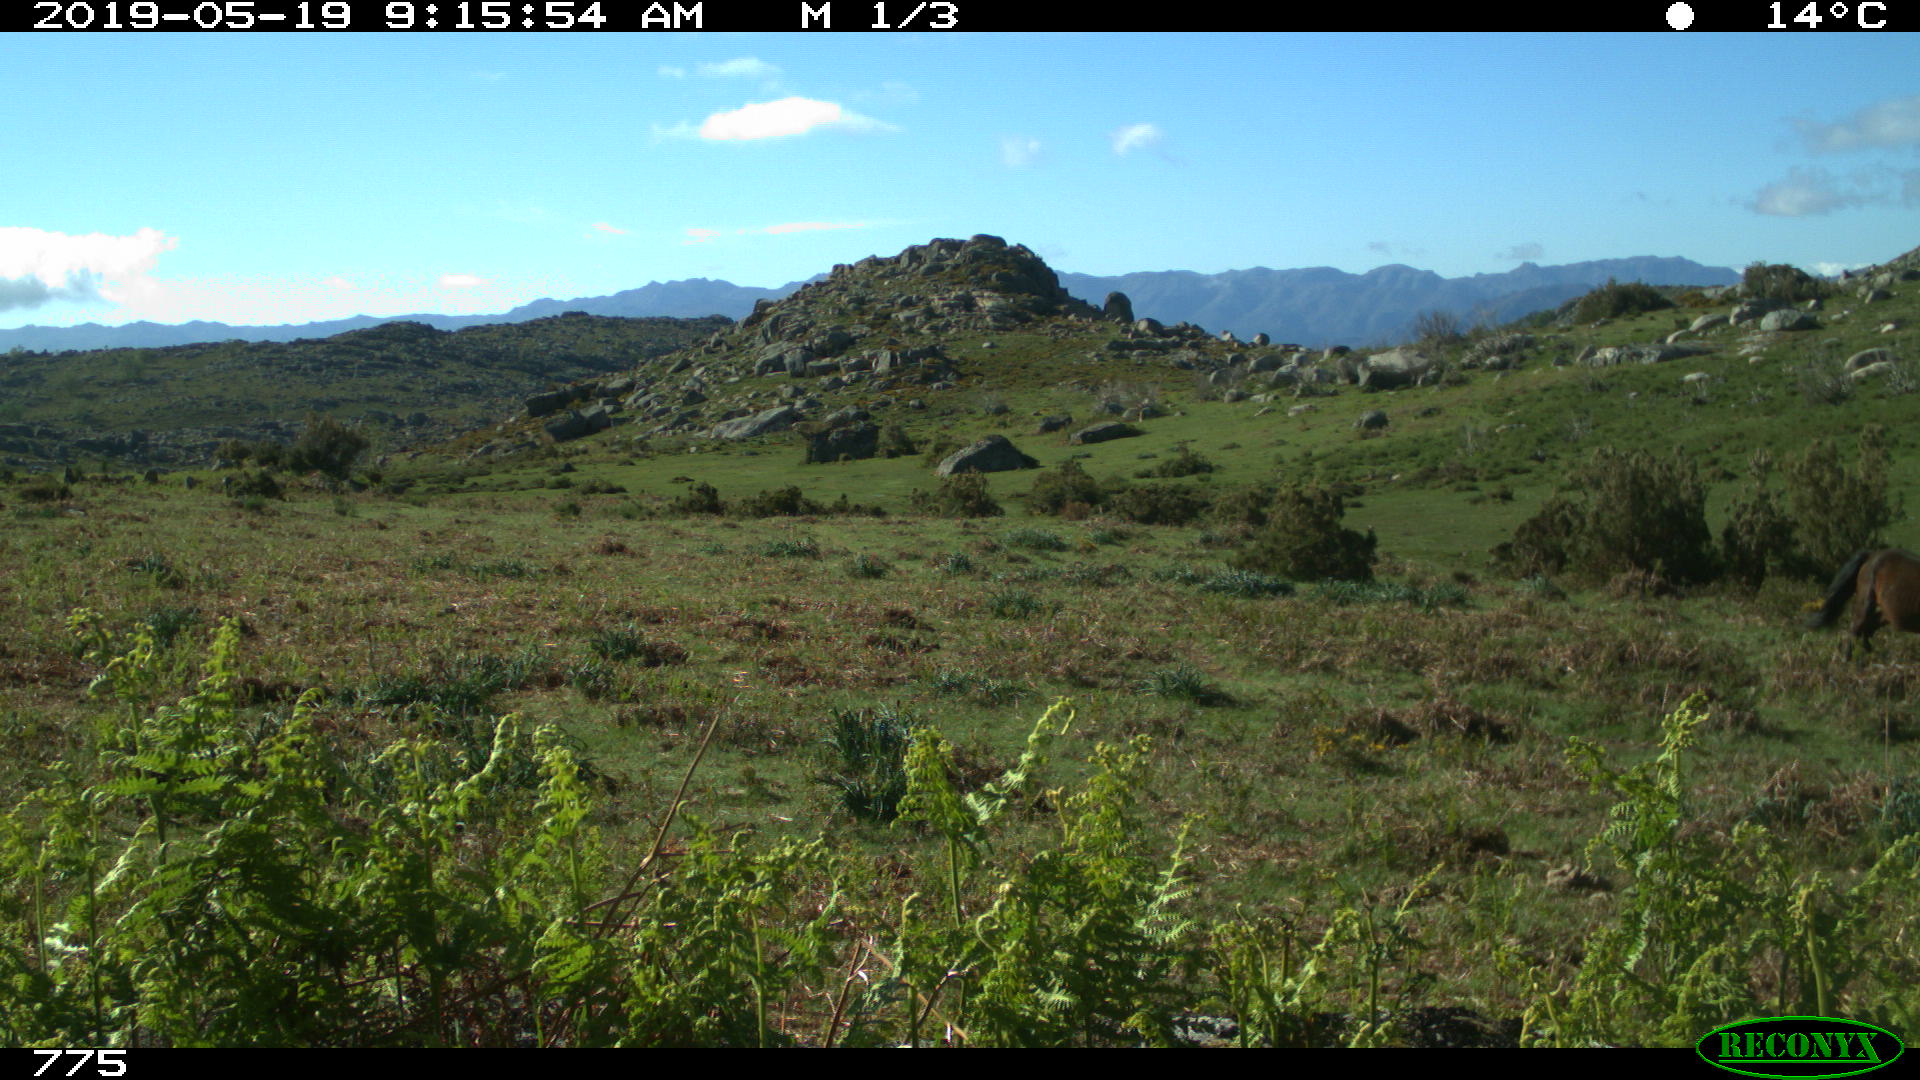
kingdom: Animalia
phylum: Chordata
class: Mammalia
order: Perissodactyla
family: Equidae
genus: Equus
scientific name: Equus caballus
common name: Horse
